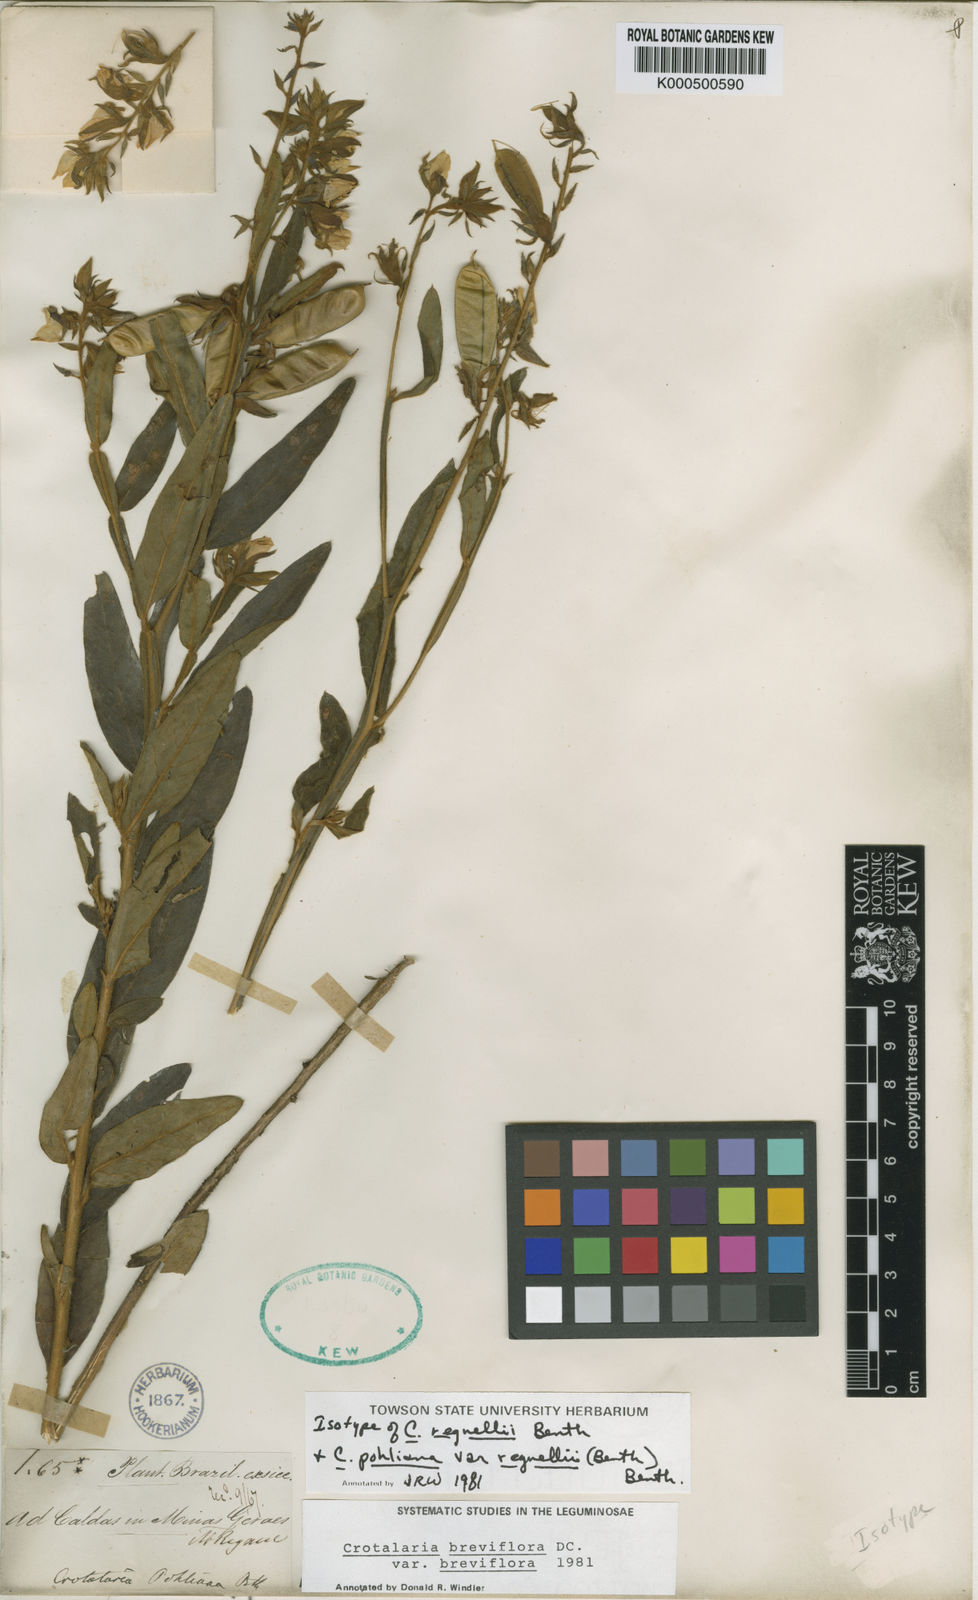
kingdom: Plantae
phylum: Tracheophyta
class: Magnoliopsida
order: Fabales
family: Fabaceae
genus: Crotalaria
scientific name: Crotalaria breviflora
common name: Short-flower crotalaria
